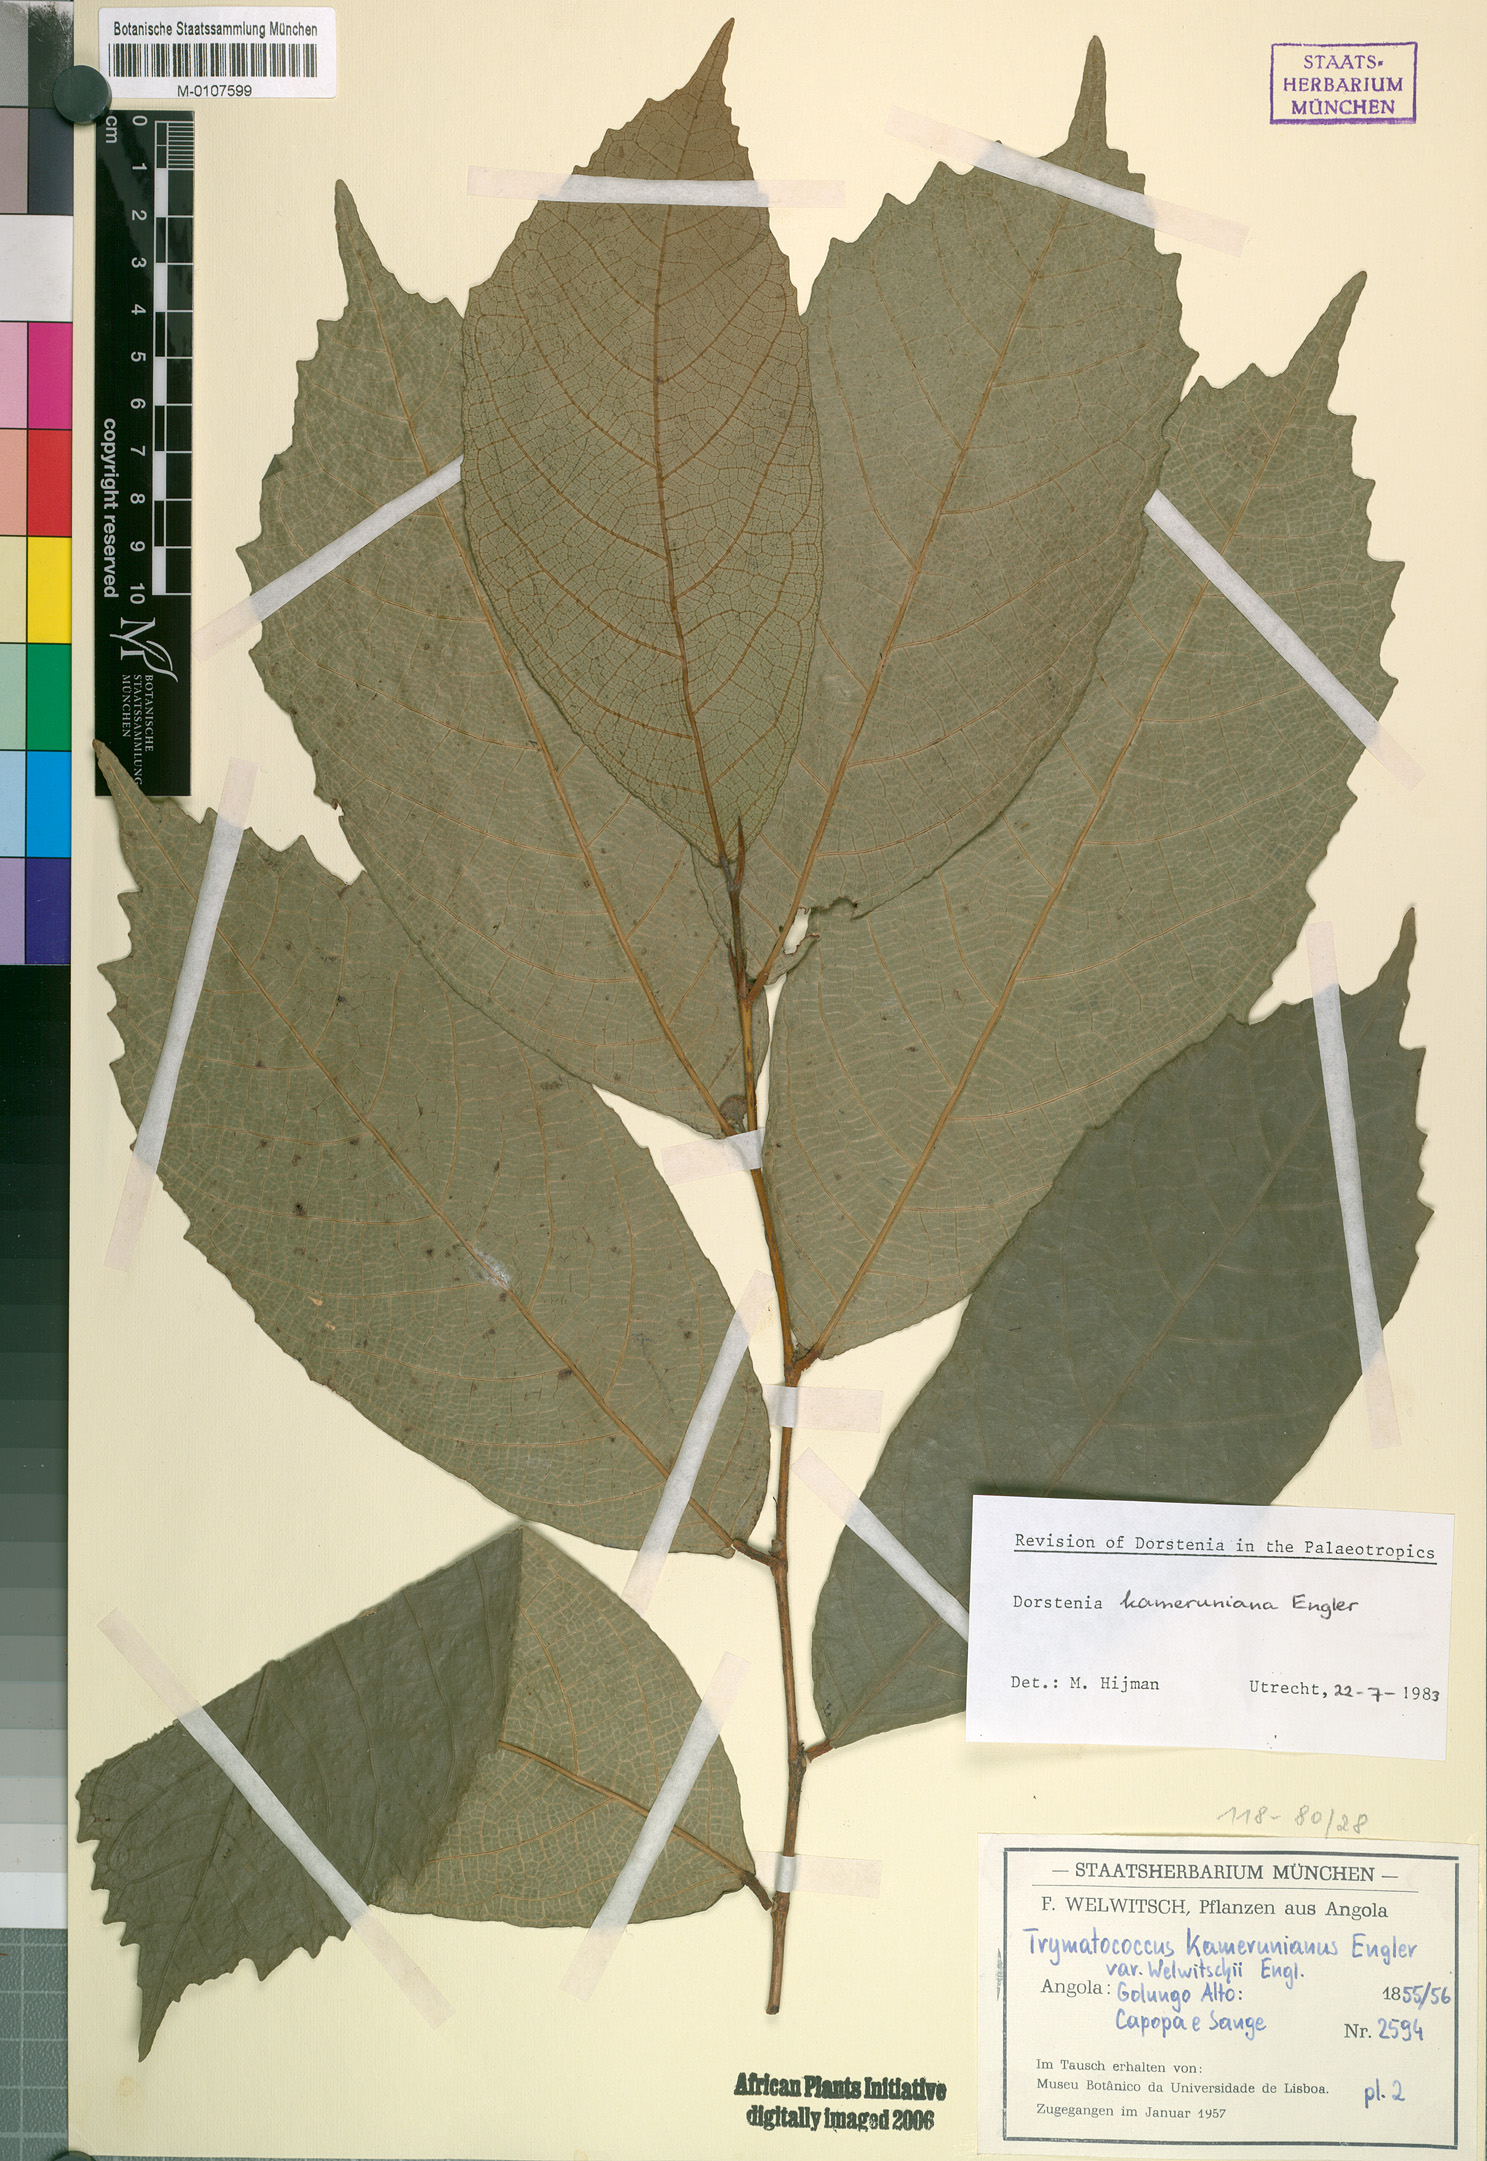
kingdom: Plantae
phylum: Tracheophyta
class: Magnoliopsida
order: Rosales
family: Moraceae
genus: Dorstenia
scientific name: Dorstenia kameruniana
